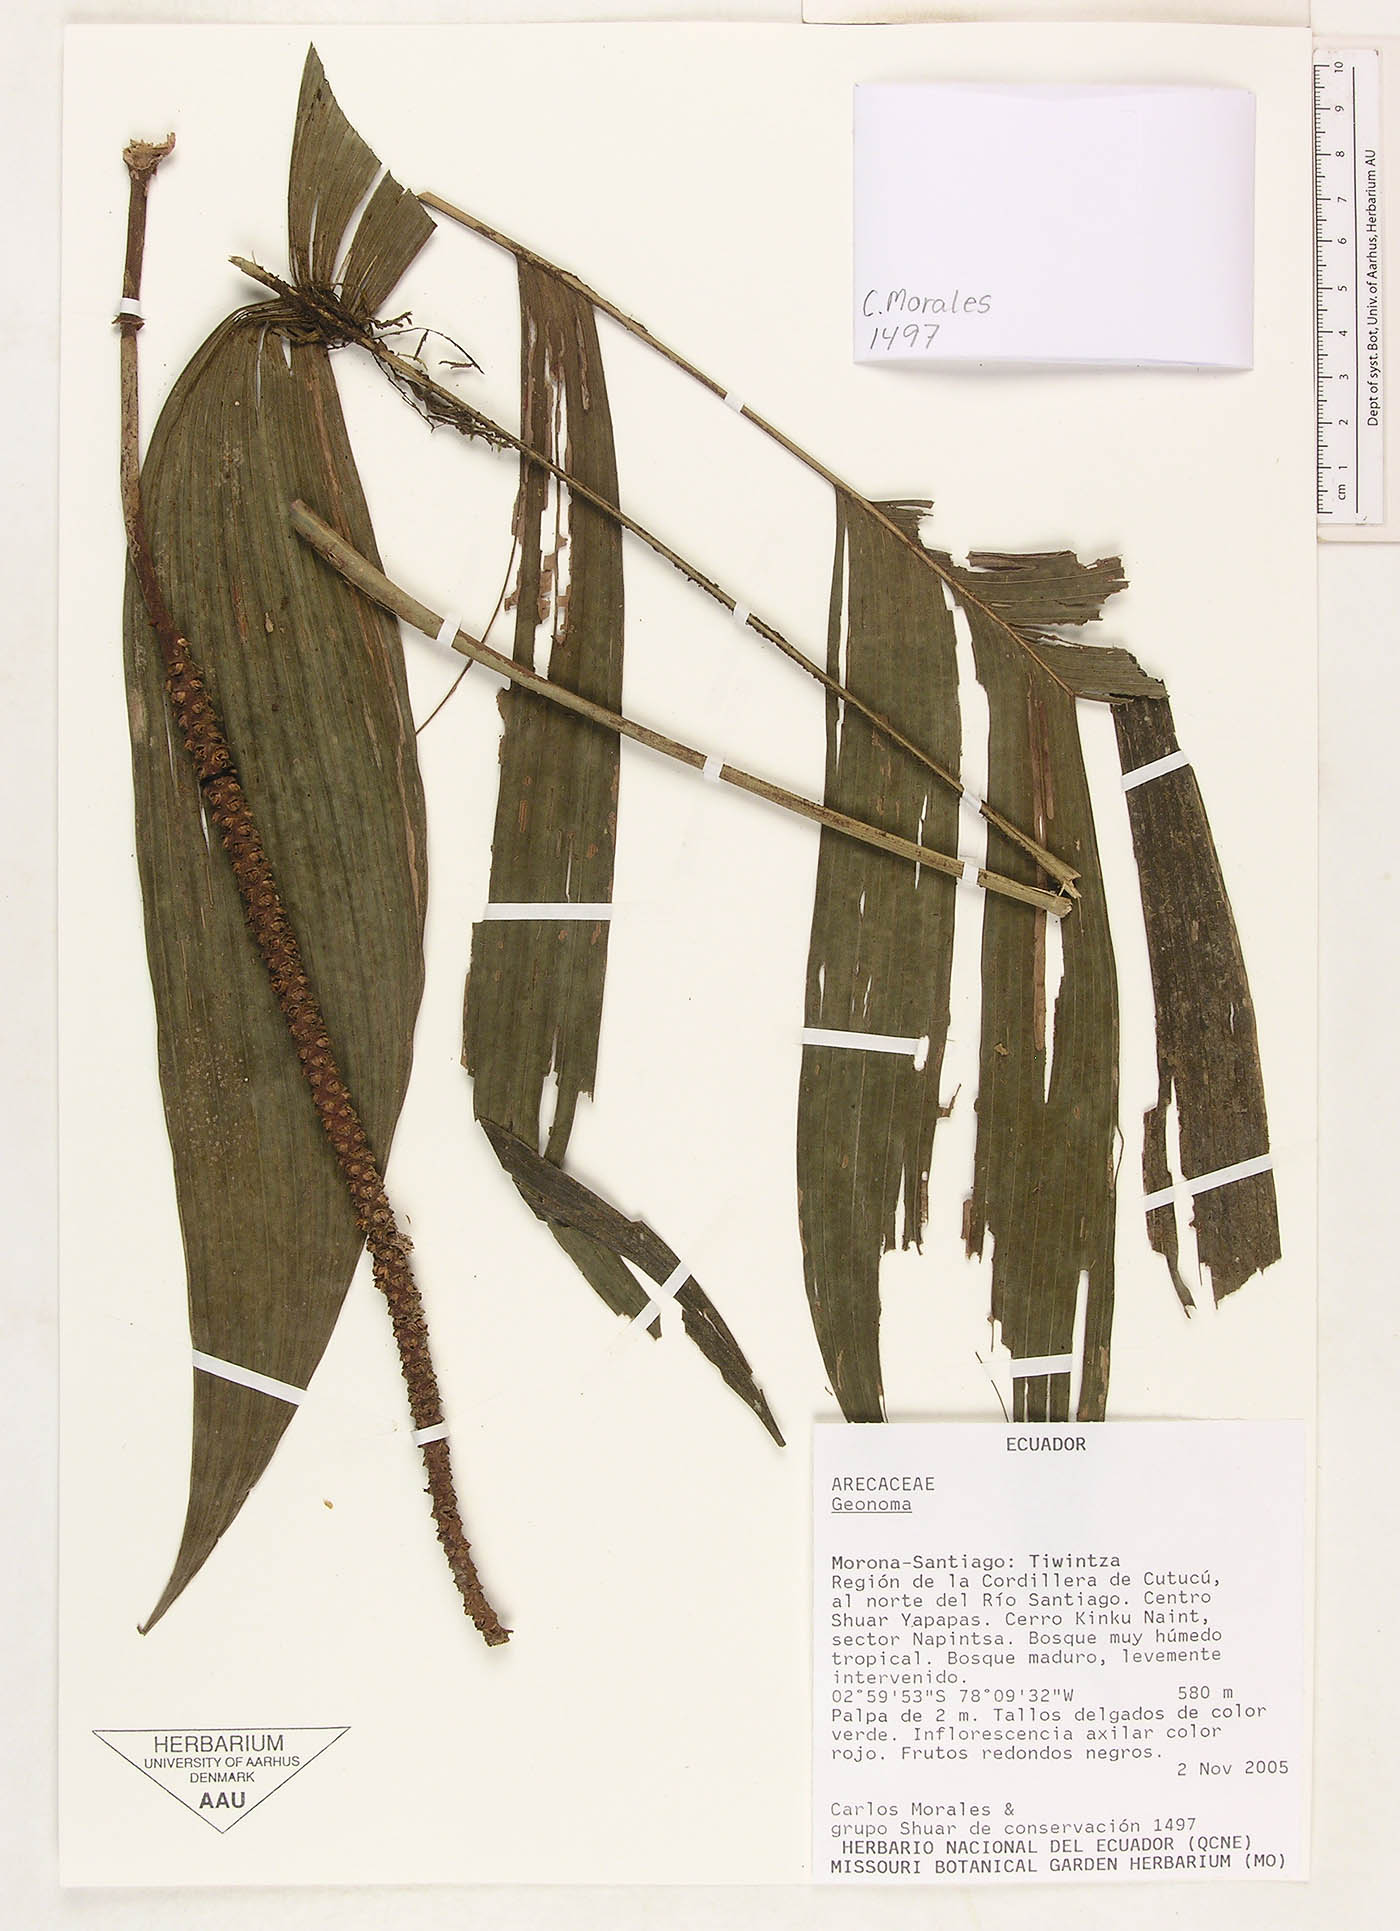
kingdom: Plantae
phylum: Tracheophyta
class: Liliopsida
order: Arecales
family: Arecaceae
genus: Geonoma
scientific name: Geonoma
